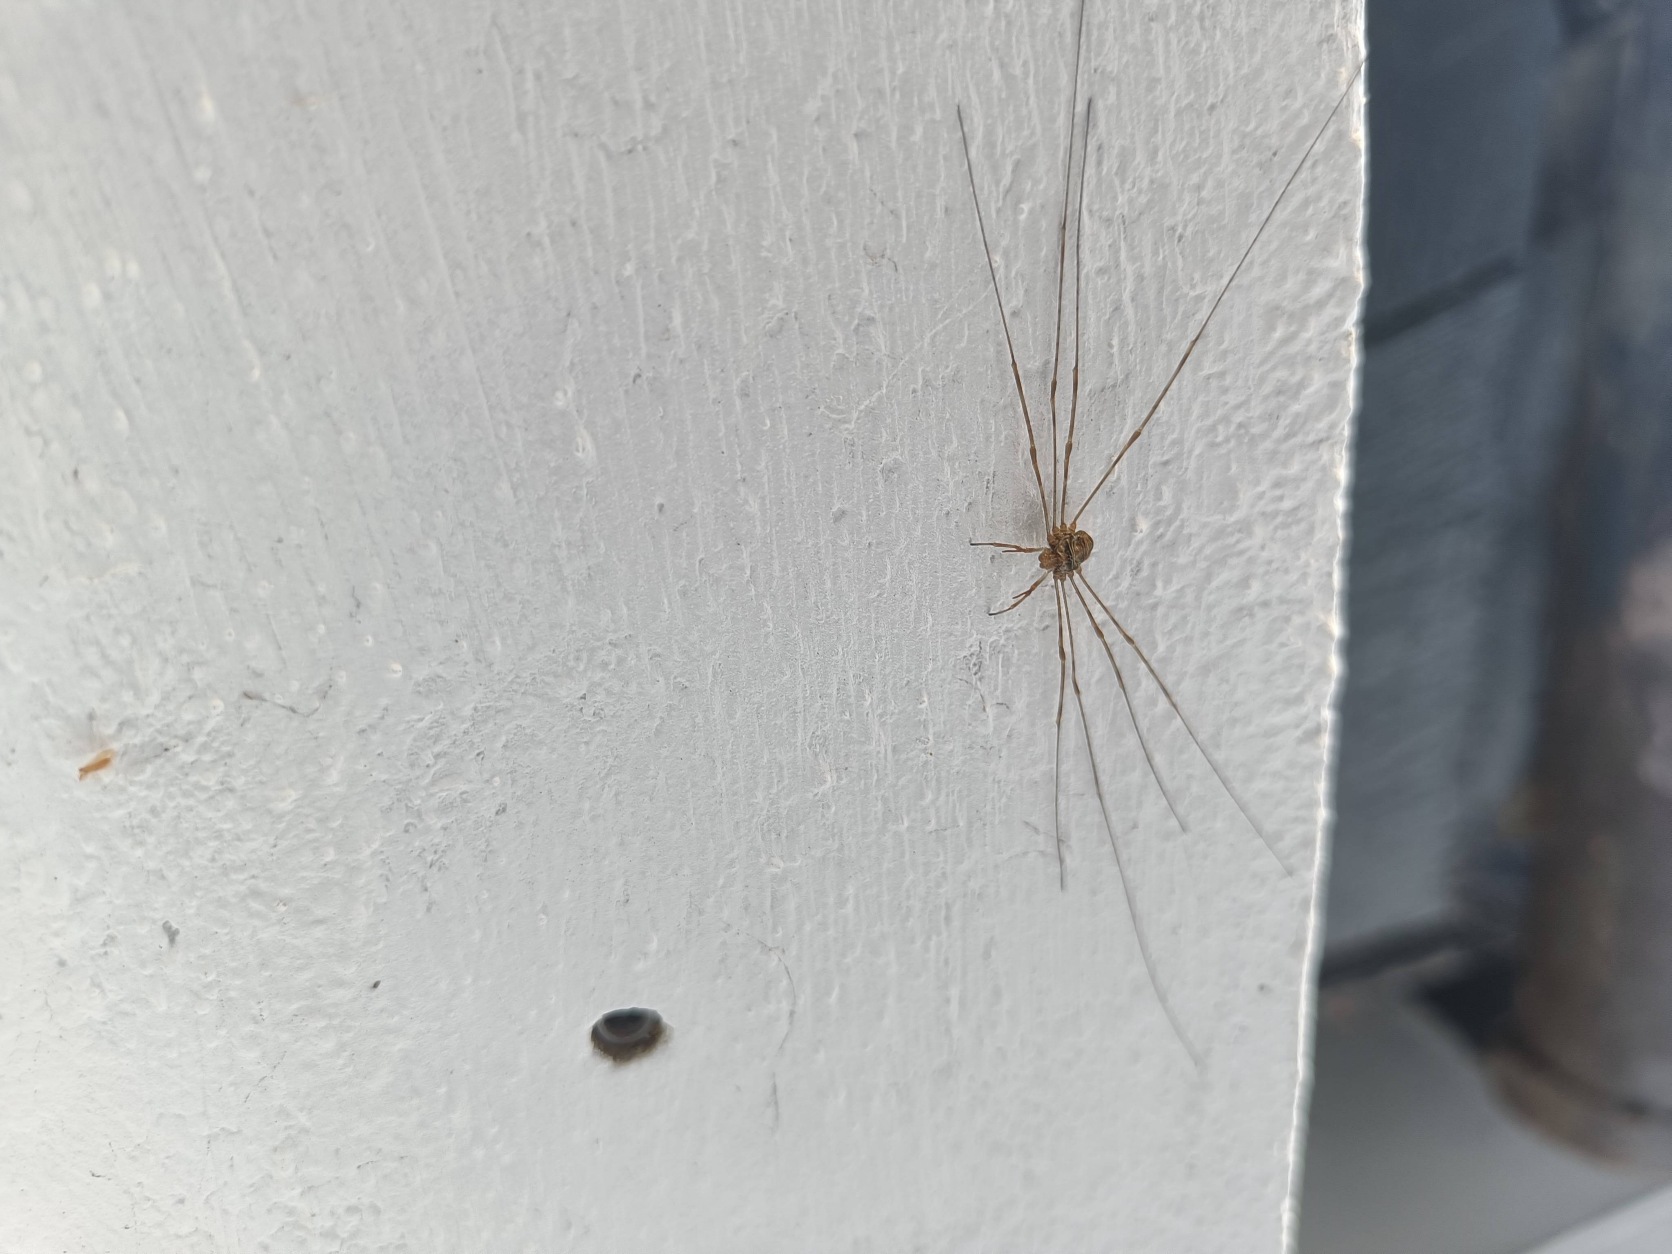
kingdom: Animalia
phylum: Arthropoda
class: Arachnida
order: Opiliones
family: Phalangiidae
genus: Dicranopalpus
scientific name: Dicranopalpus ramosus
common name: Gaffelmejer
